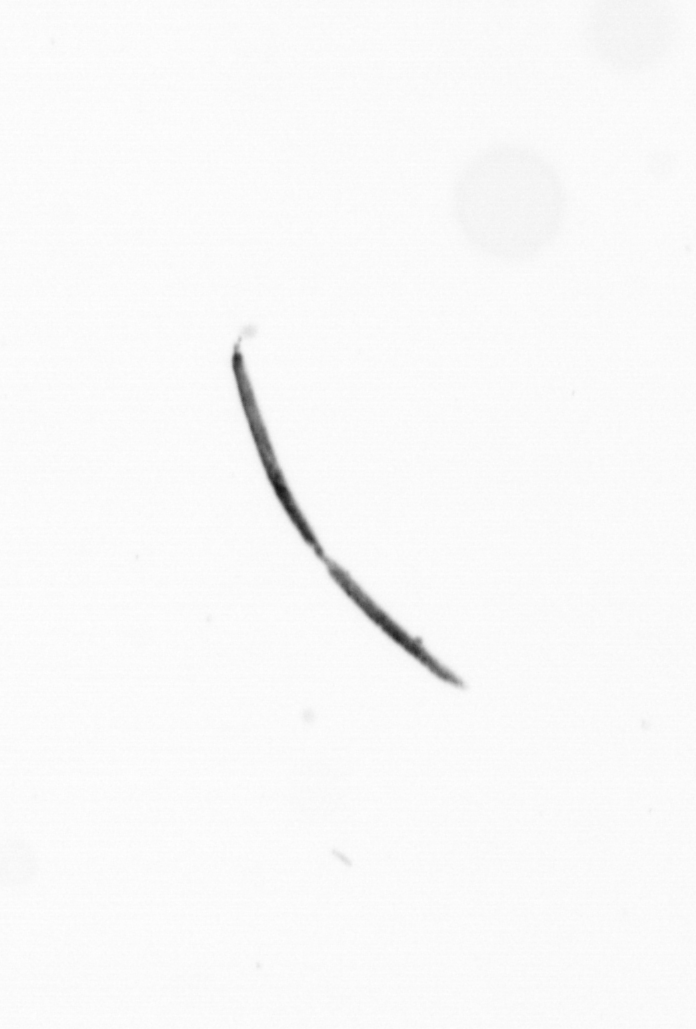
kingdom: Chromista
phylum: Ochrophyta
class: Bacillariophyceae
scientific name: Bacillariophyceae
